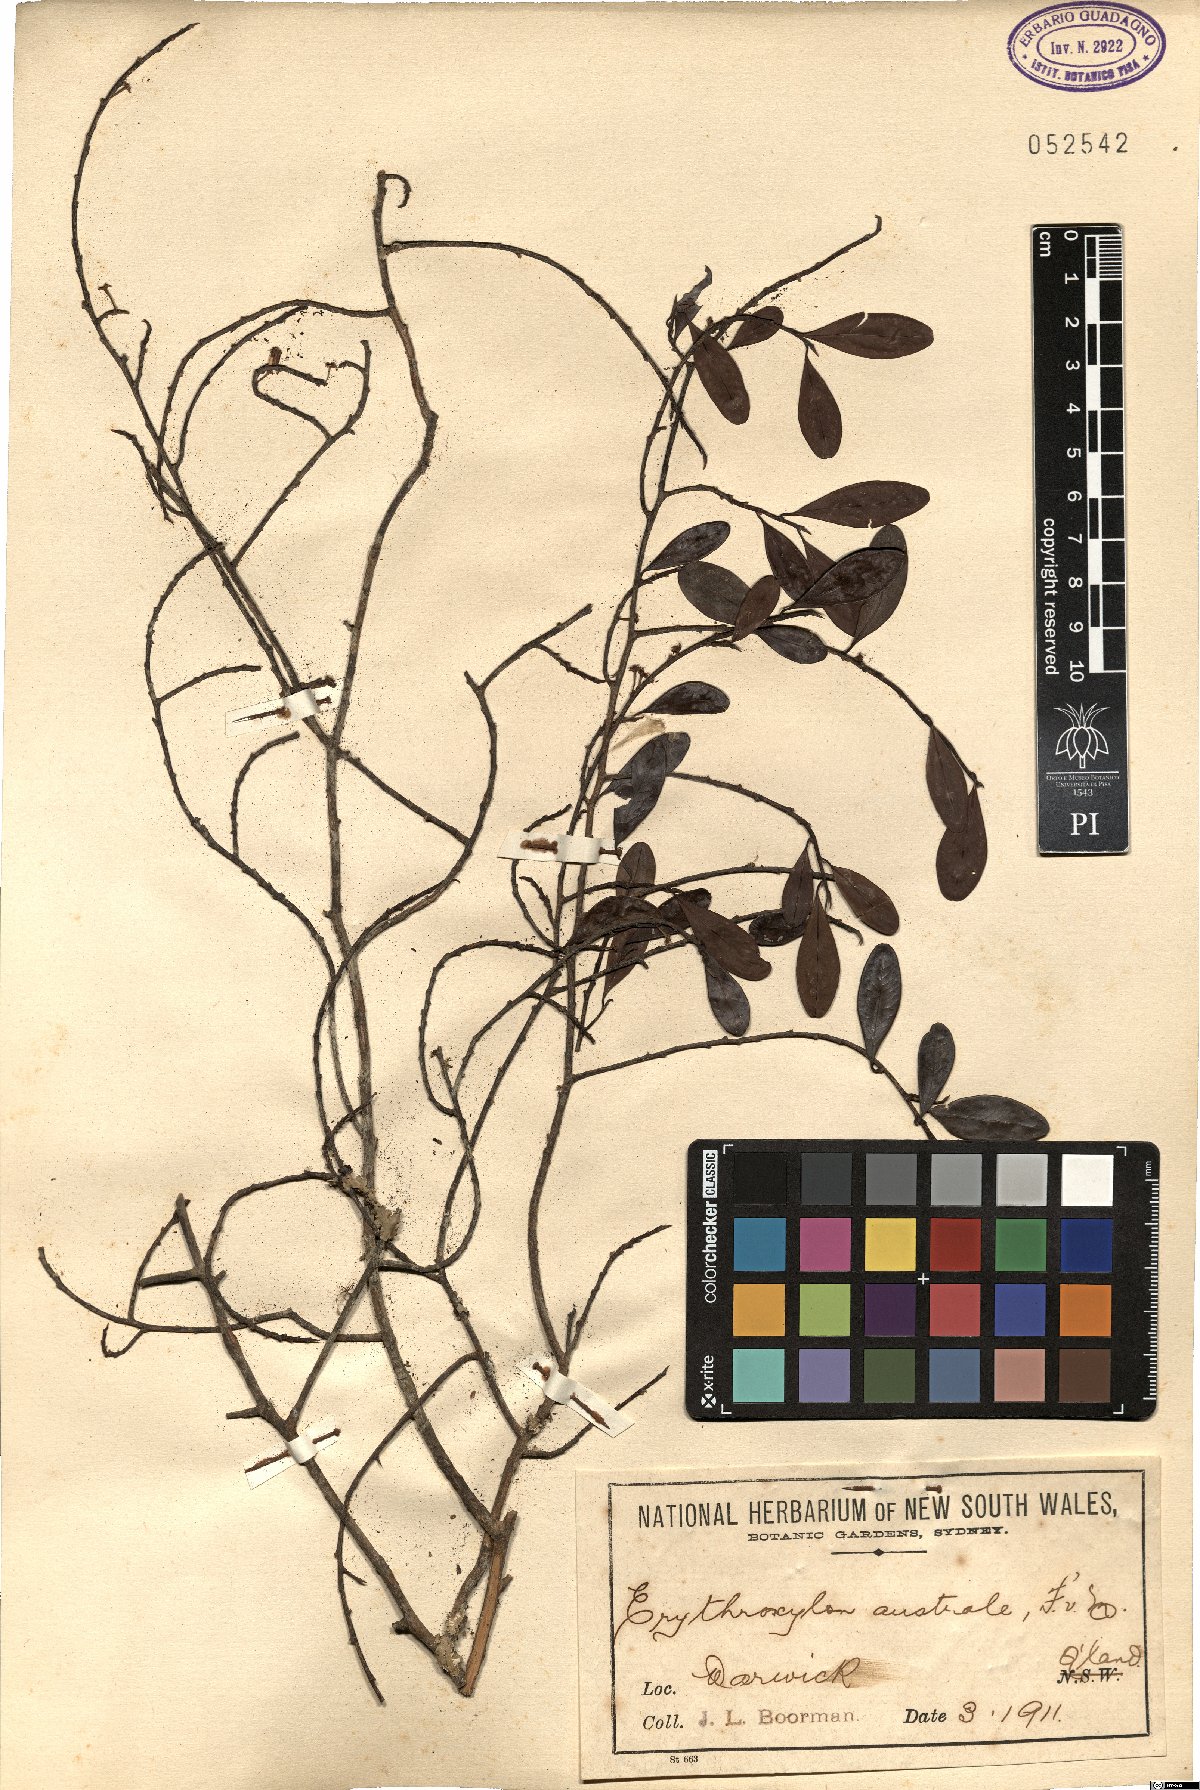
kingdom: Plantae
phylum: Tracheophyta
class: Magnoliopsida
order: Malpighiales
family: Erythroxylaceae
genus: Erythroxylum
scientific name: Erythroxylum australe
